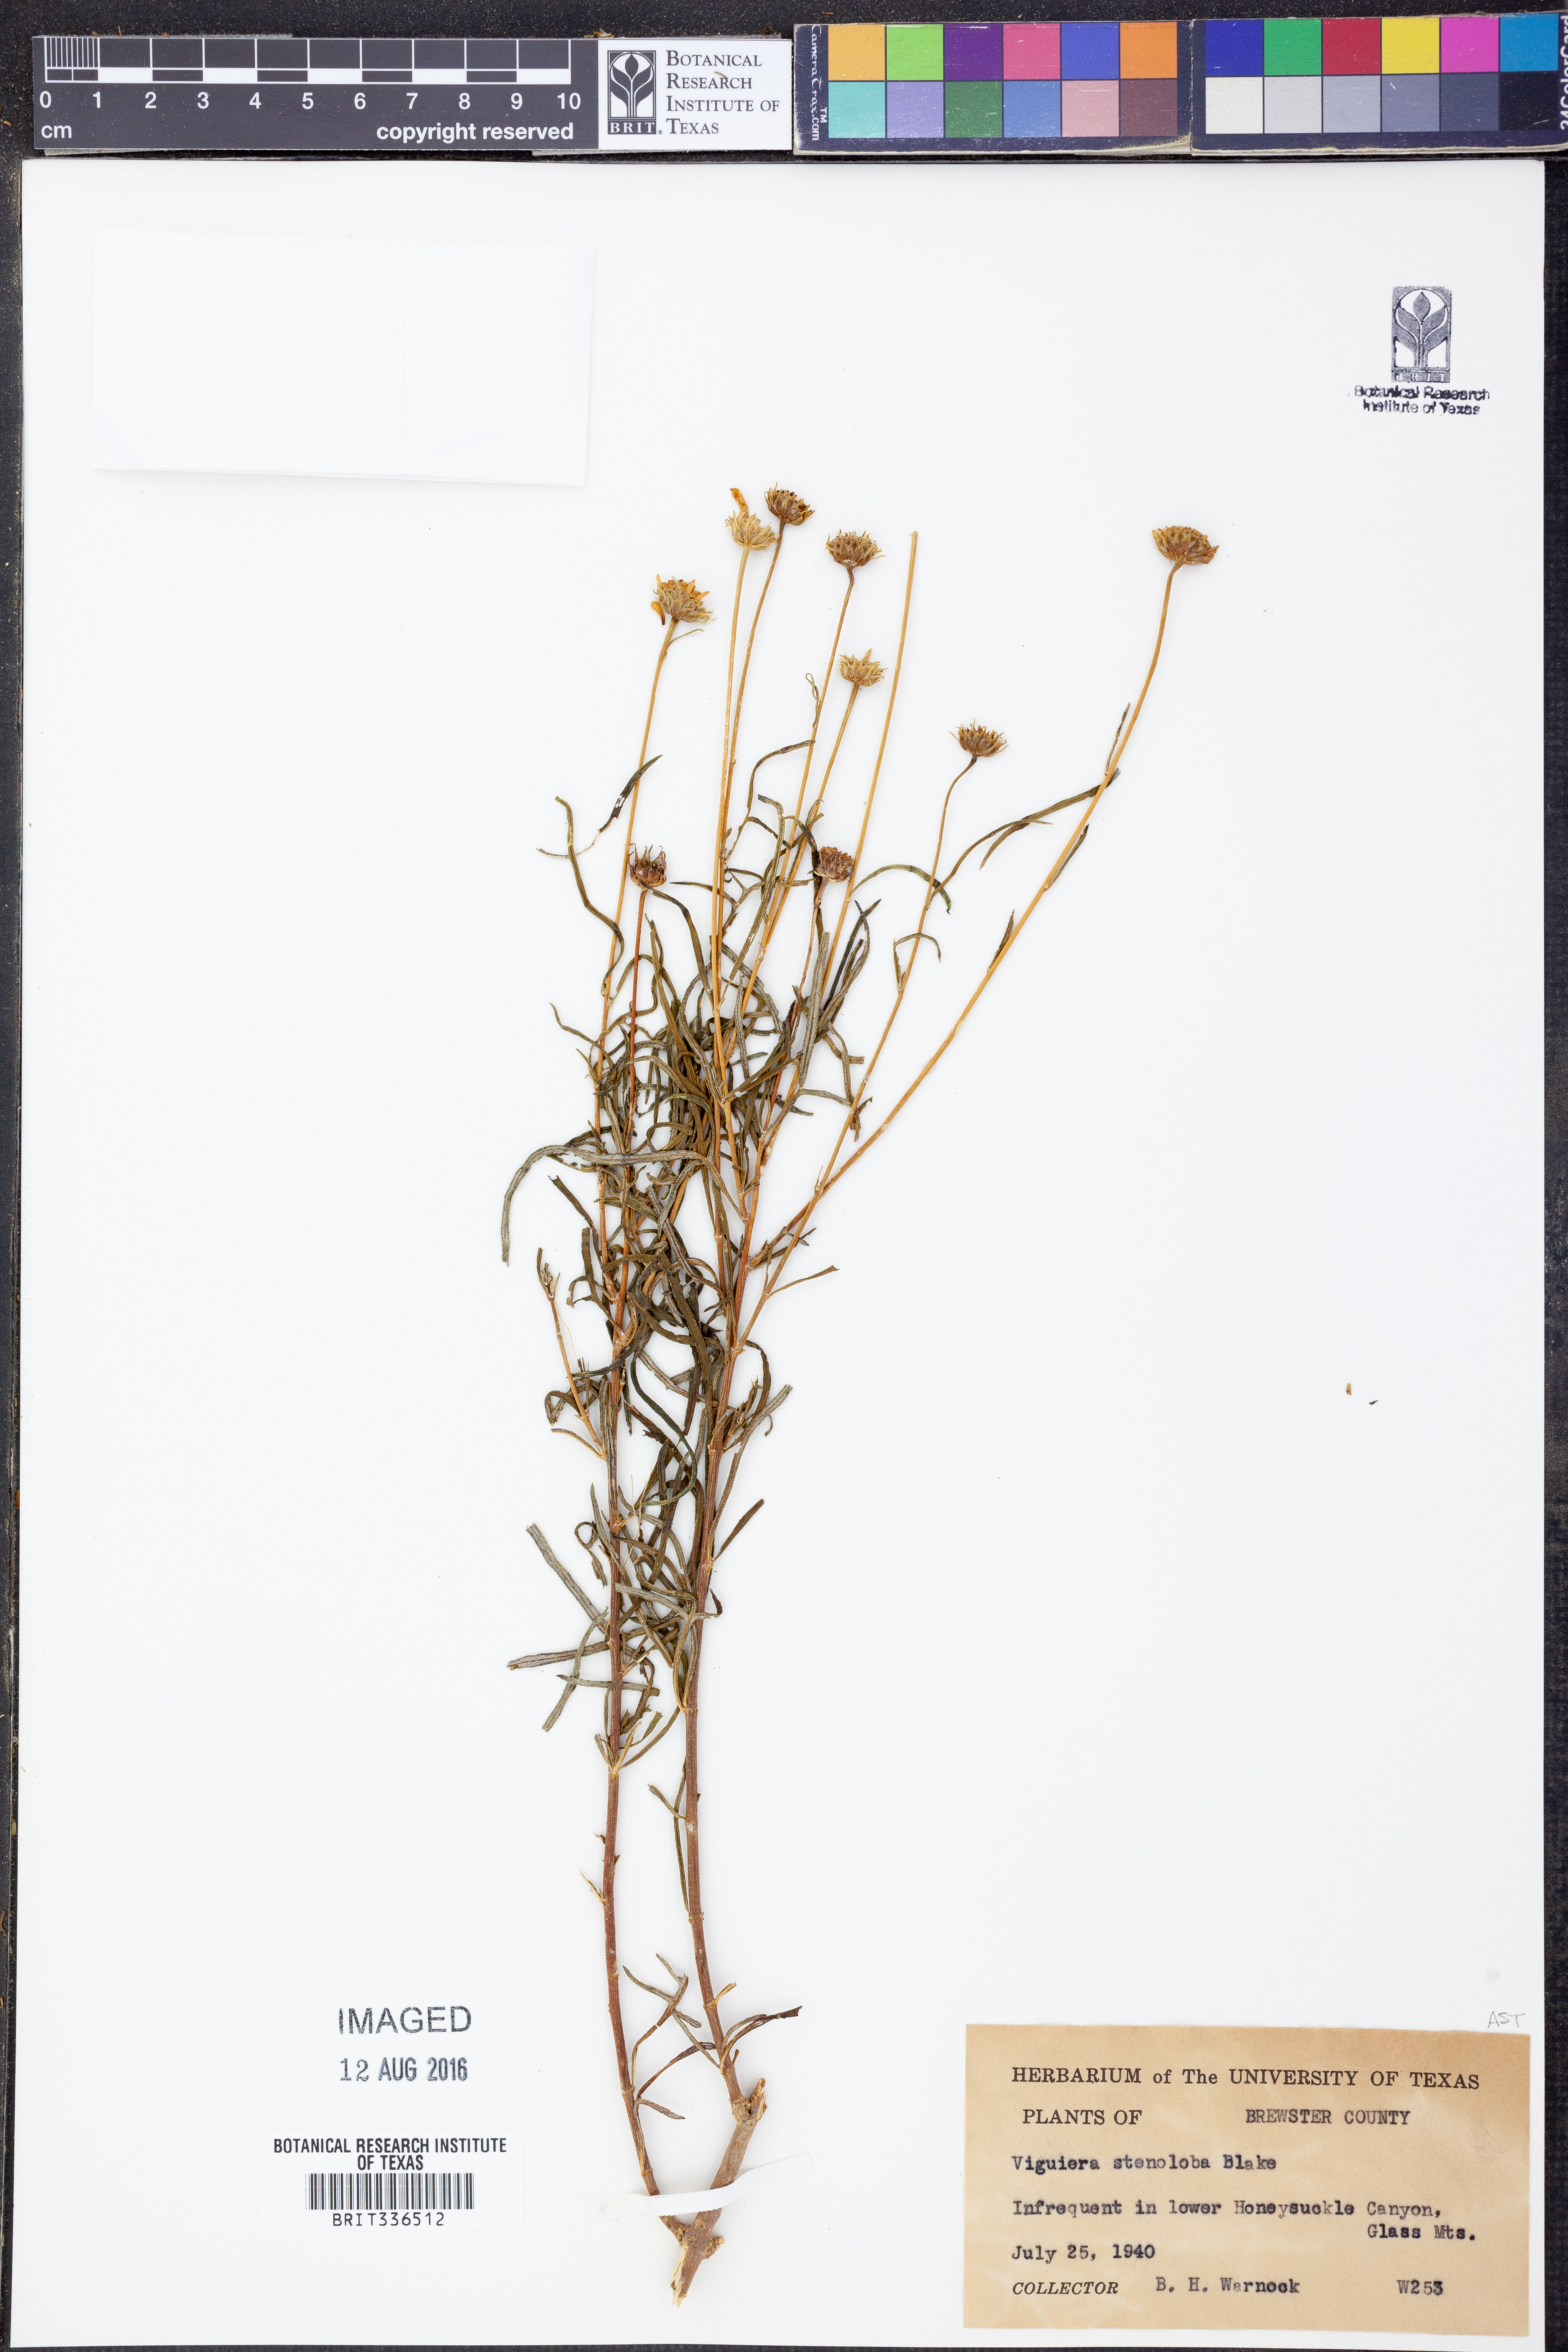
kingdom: Plantae
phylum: Tracheophyta
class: Magnoliopsida
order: Asterales
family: Asteraceae
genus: Sidneya
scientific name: Sidneya tenuifolia
